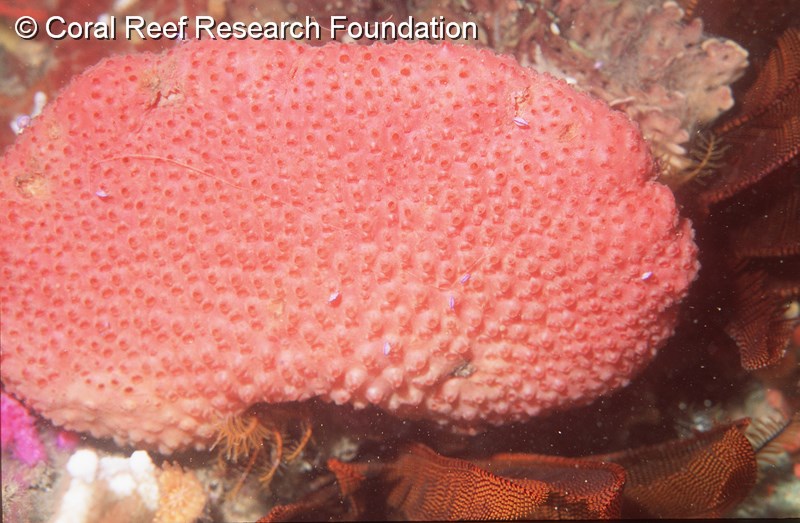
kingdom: Animalia
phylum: Chordata
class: Ascidiacea
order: Stolidobranchia
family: Styelidae
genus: Gynandrocarpa
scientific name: Gynandrocarpa placenta
